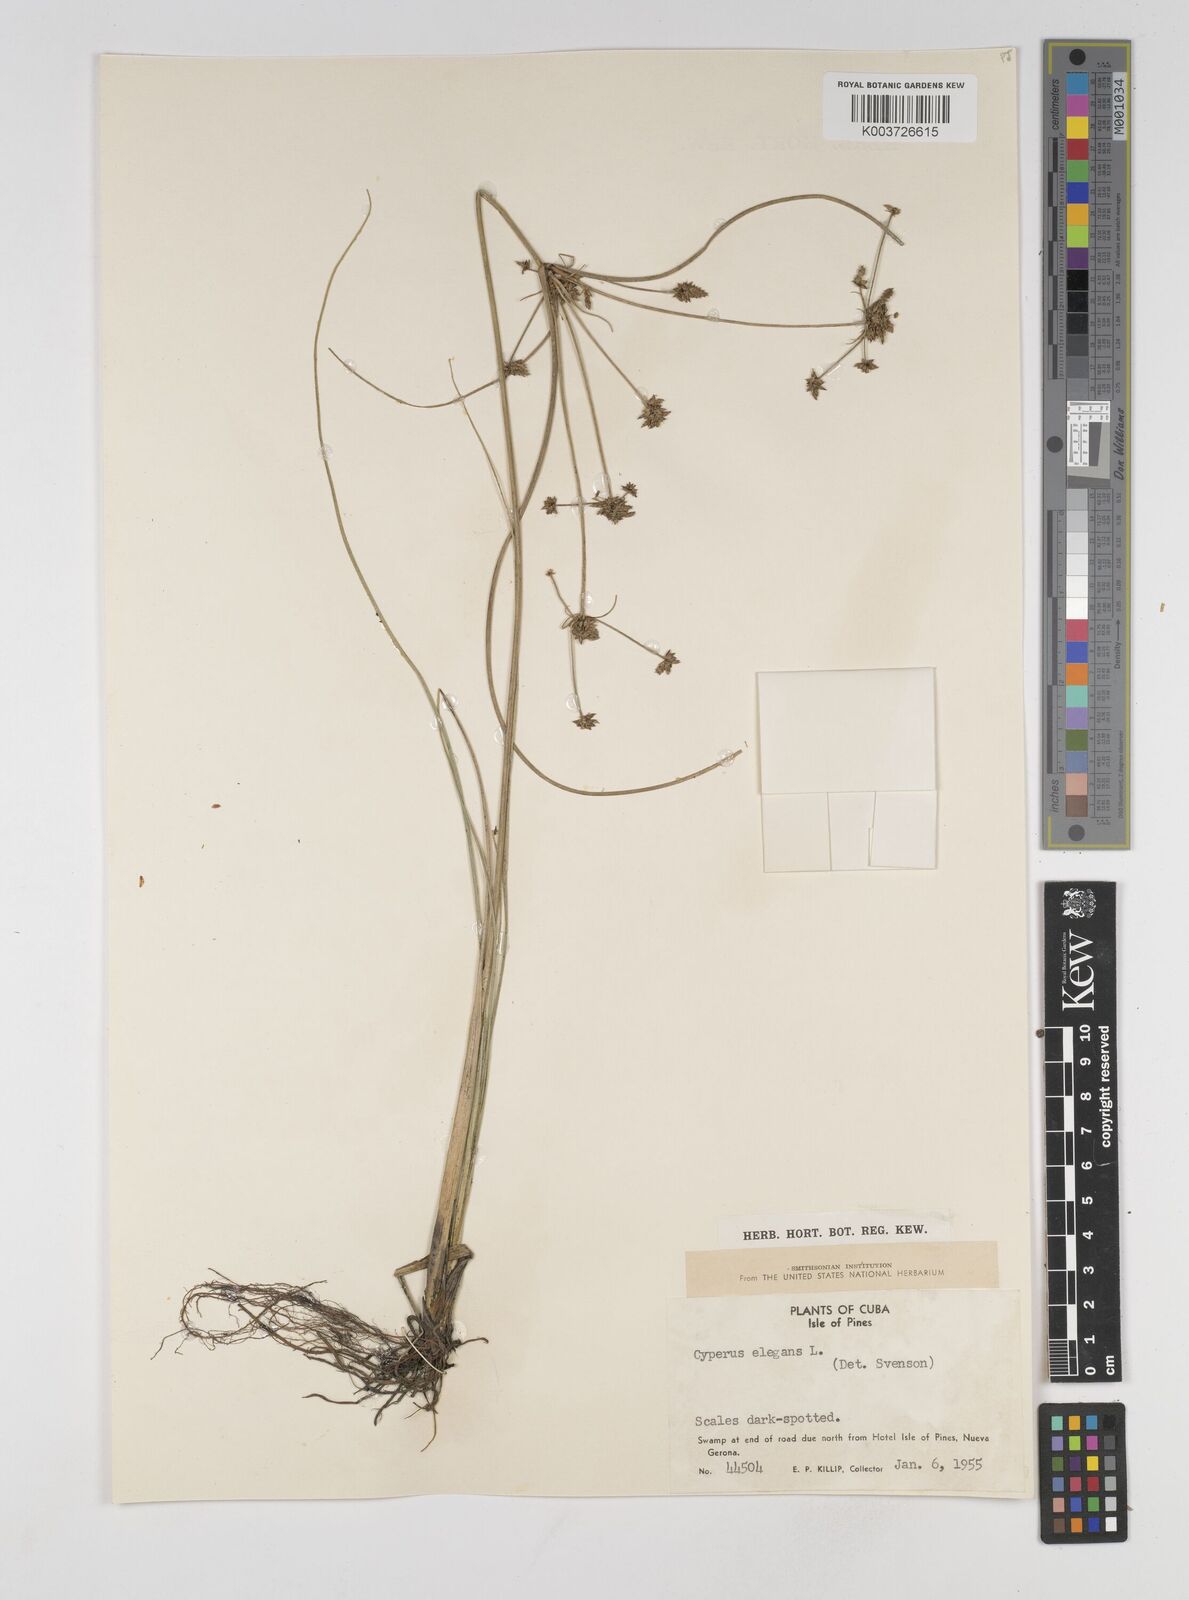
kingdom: Plantae
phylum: Tracheophyta
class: Liliopsida
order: Poales
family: Cyperaceae
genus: Cyperus
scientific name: Cyperus elegans
